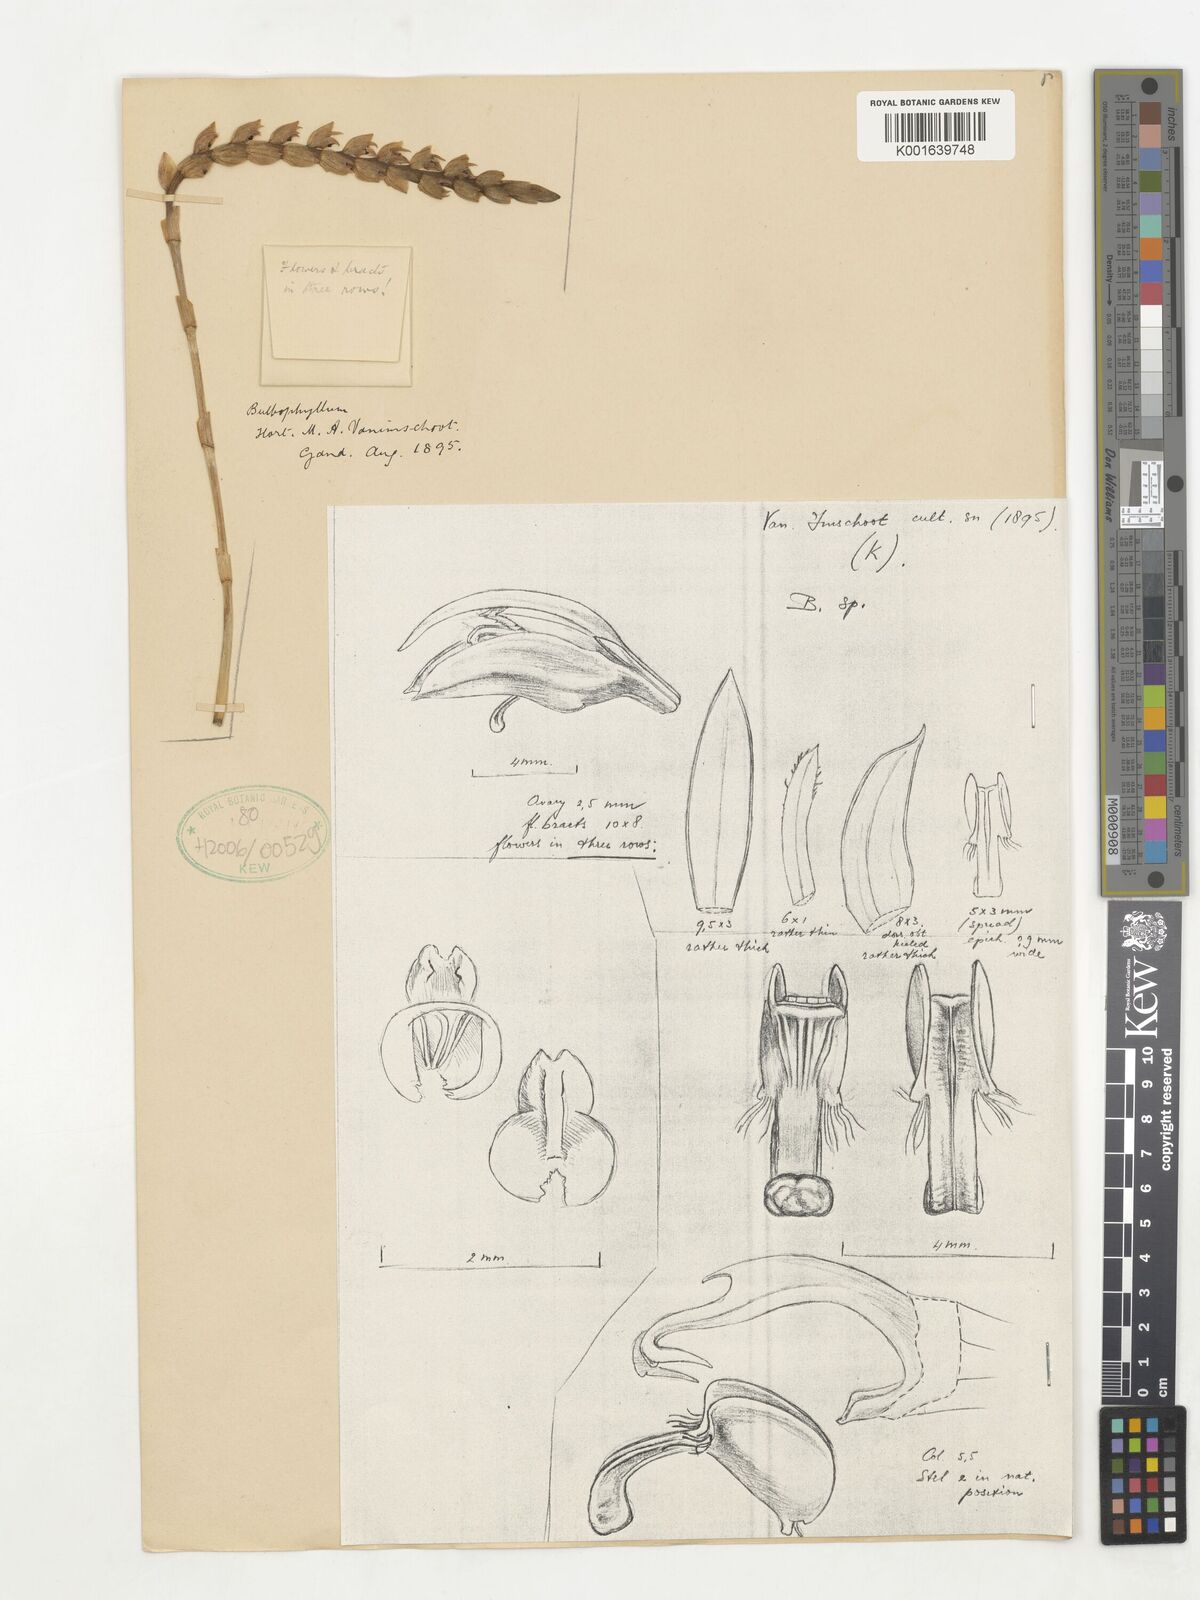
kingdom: Plantae
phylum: Tracheophyta
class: Liliopsida
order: Asparagales
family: Orchidaceae
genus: Bulbophyllum
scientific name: Bulbophyllum
